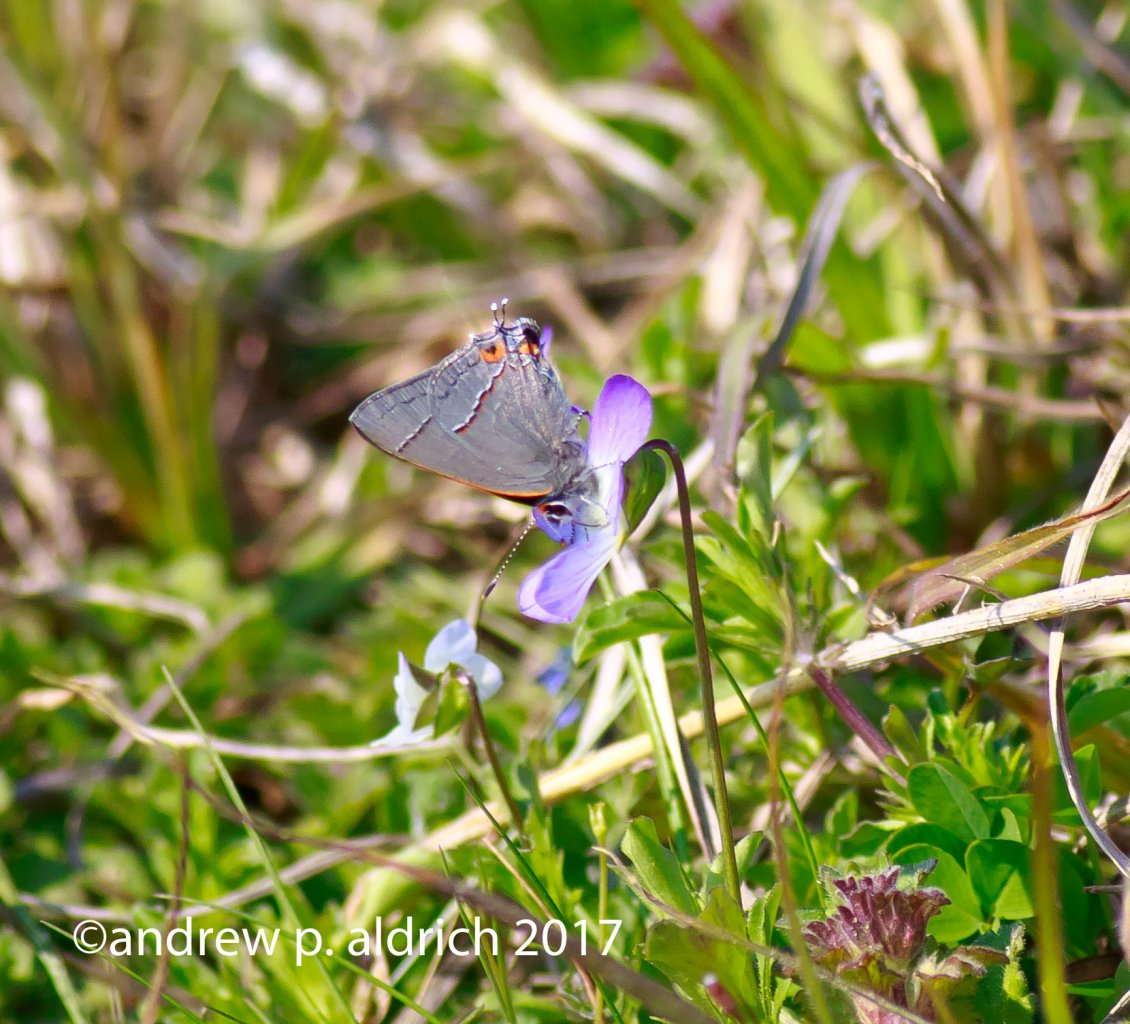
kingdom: Animalia
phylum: Arthropoda
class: Insecta
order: Lepidoptera
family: Lycaenidae
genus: Strymon
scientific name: Strymon melinus
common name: Gray Hairstreak
